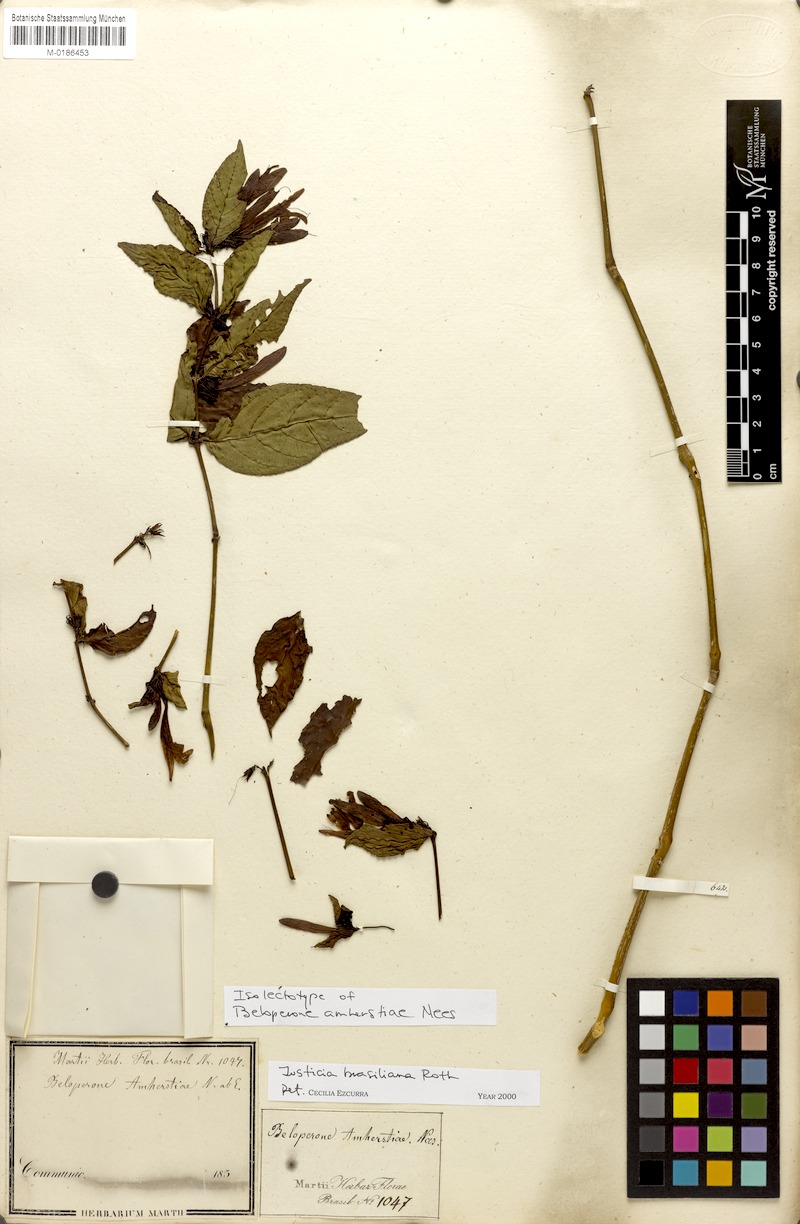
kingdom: Plantae
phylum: Tracheophyta
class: Magnoliopsida
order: Lamiales
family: Acanthaceae
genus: Justicia
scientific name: Justicia brasiliana
